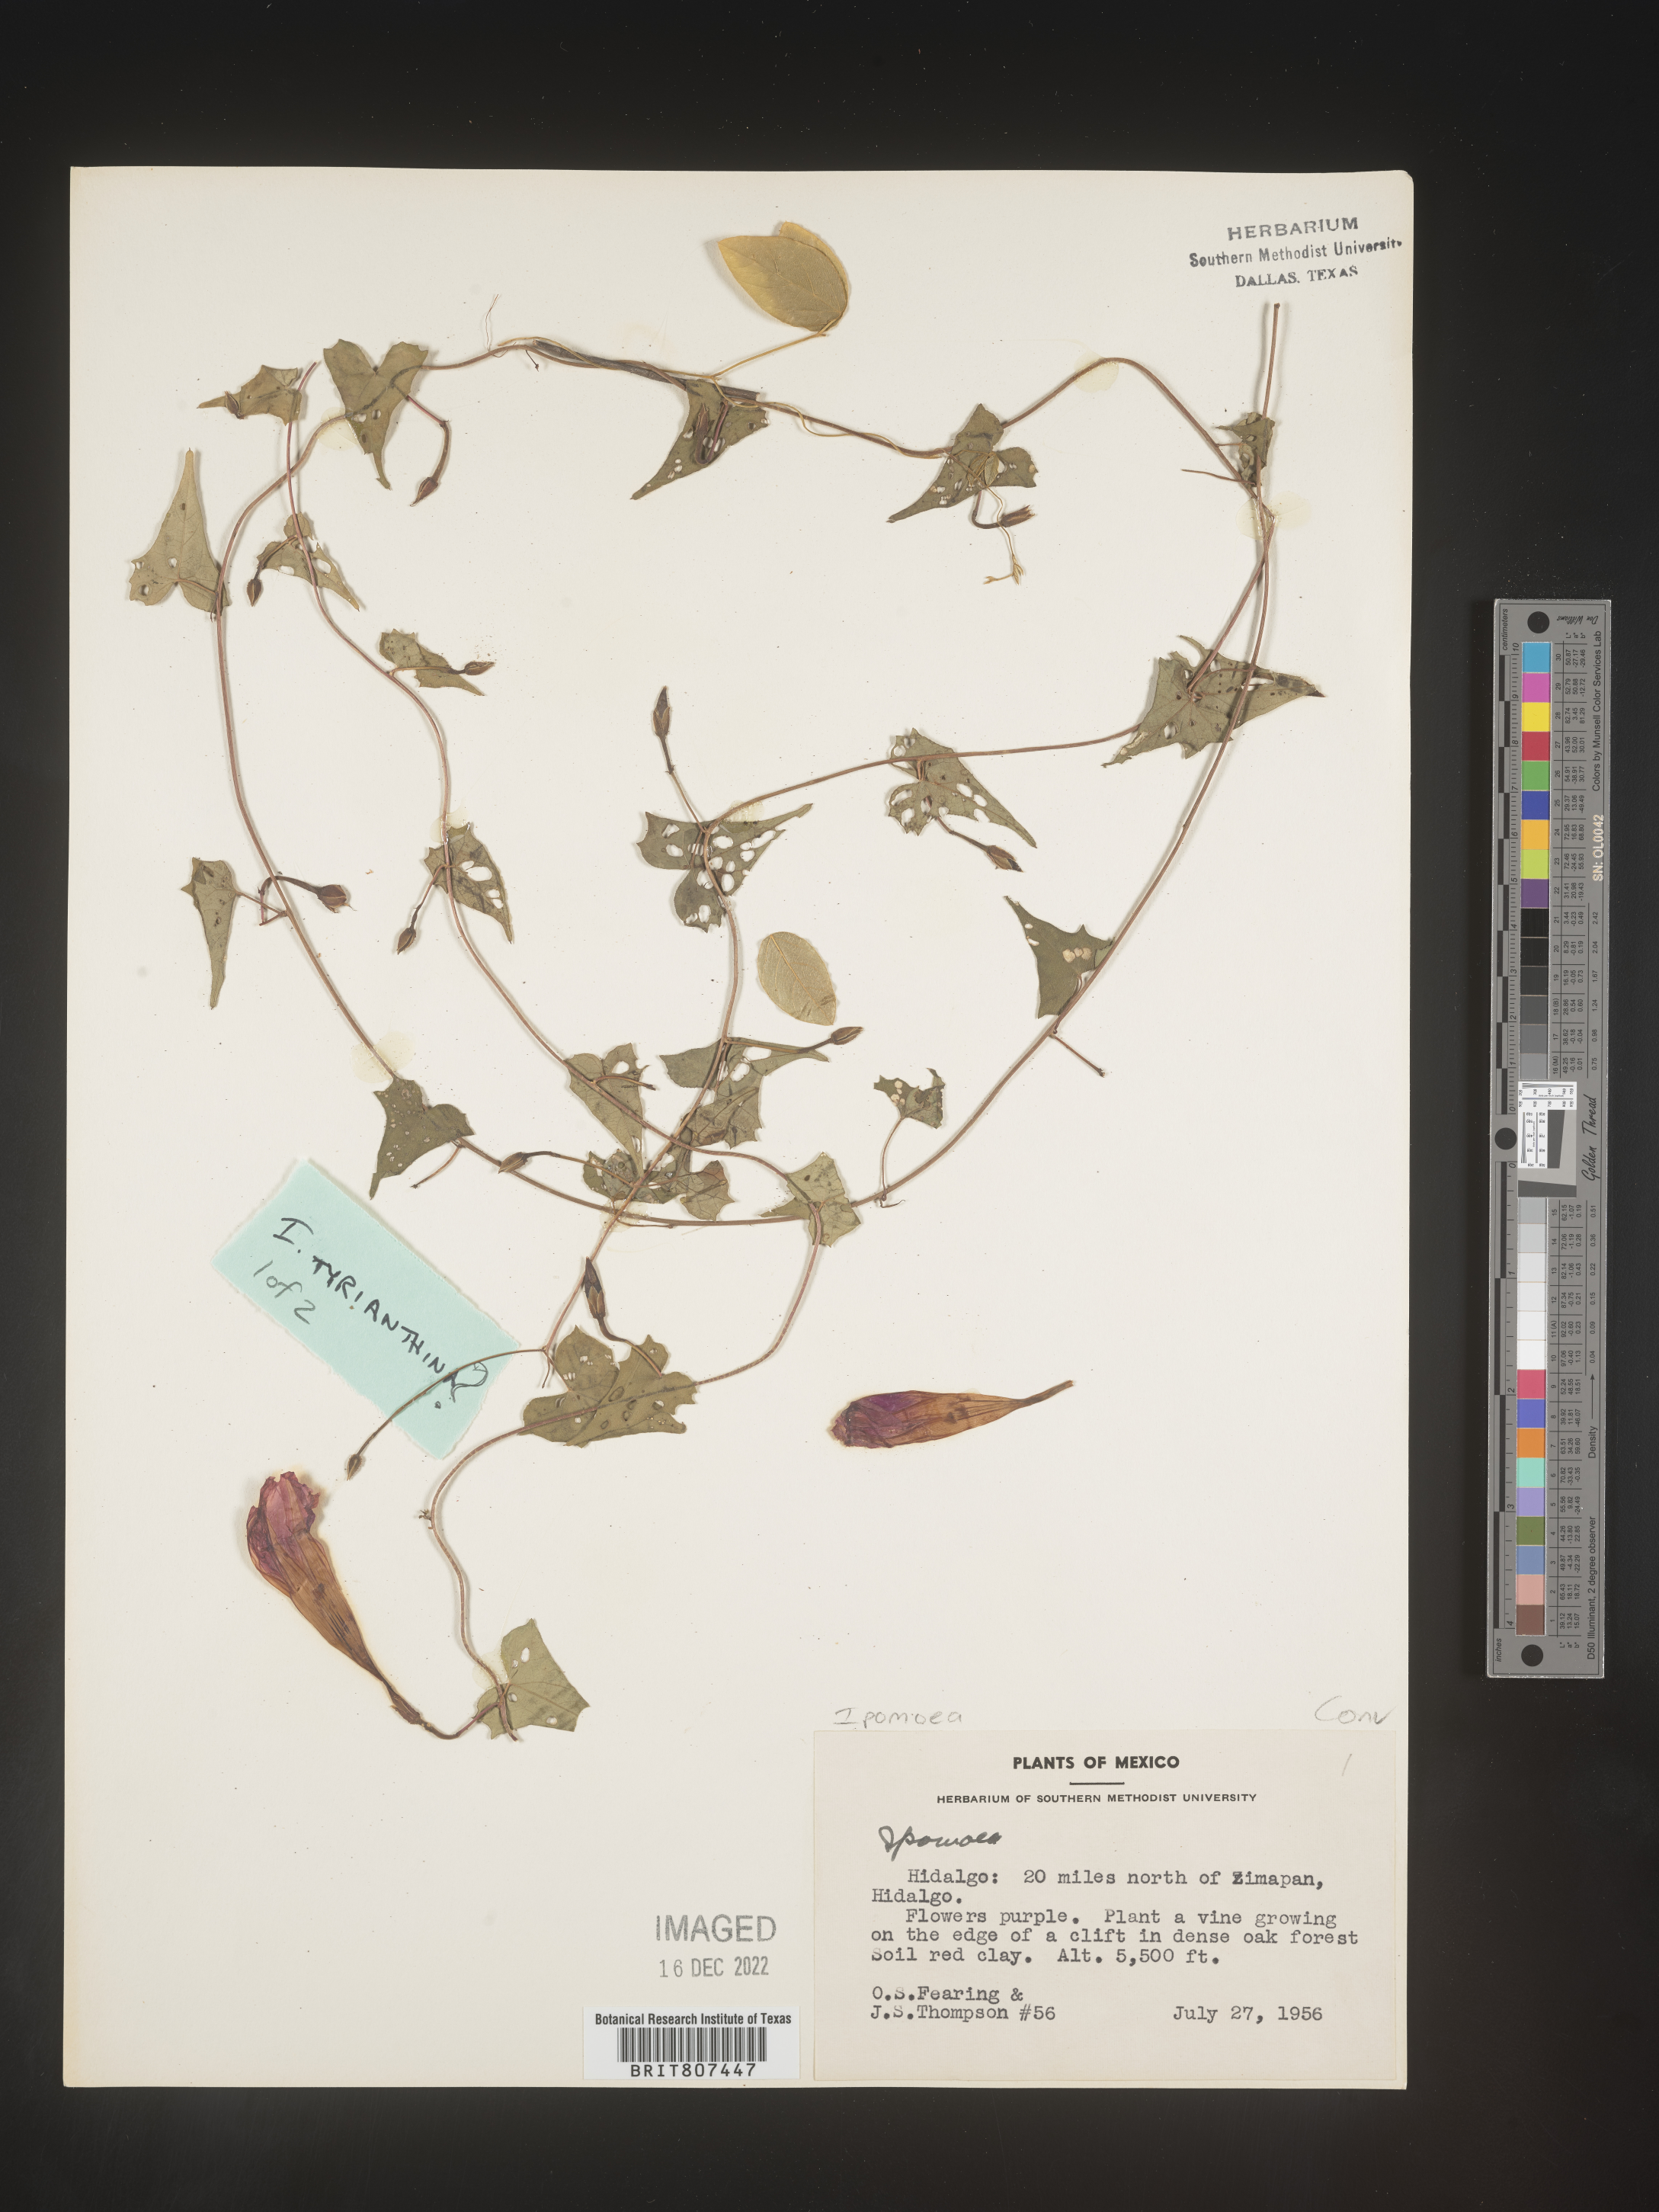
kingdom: Plantae
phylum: Tracheophyta
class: Magnoliopsida
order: Solanales
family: Convolvulaceae
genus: Ipomoea
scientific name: Ipomoea
